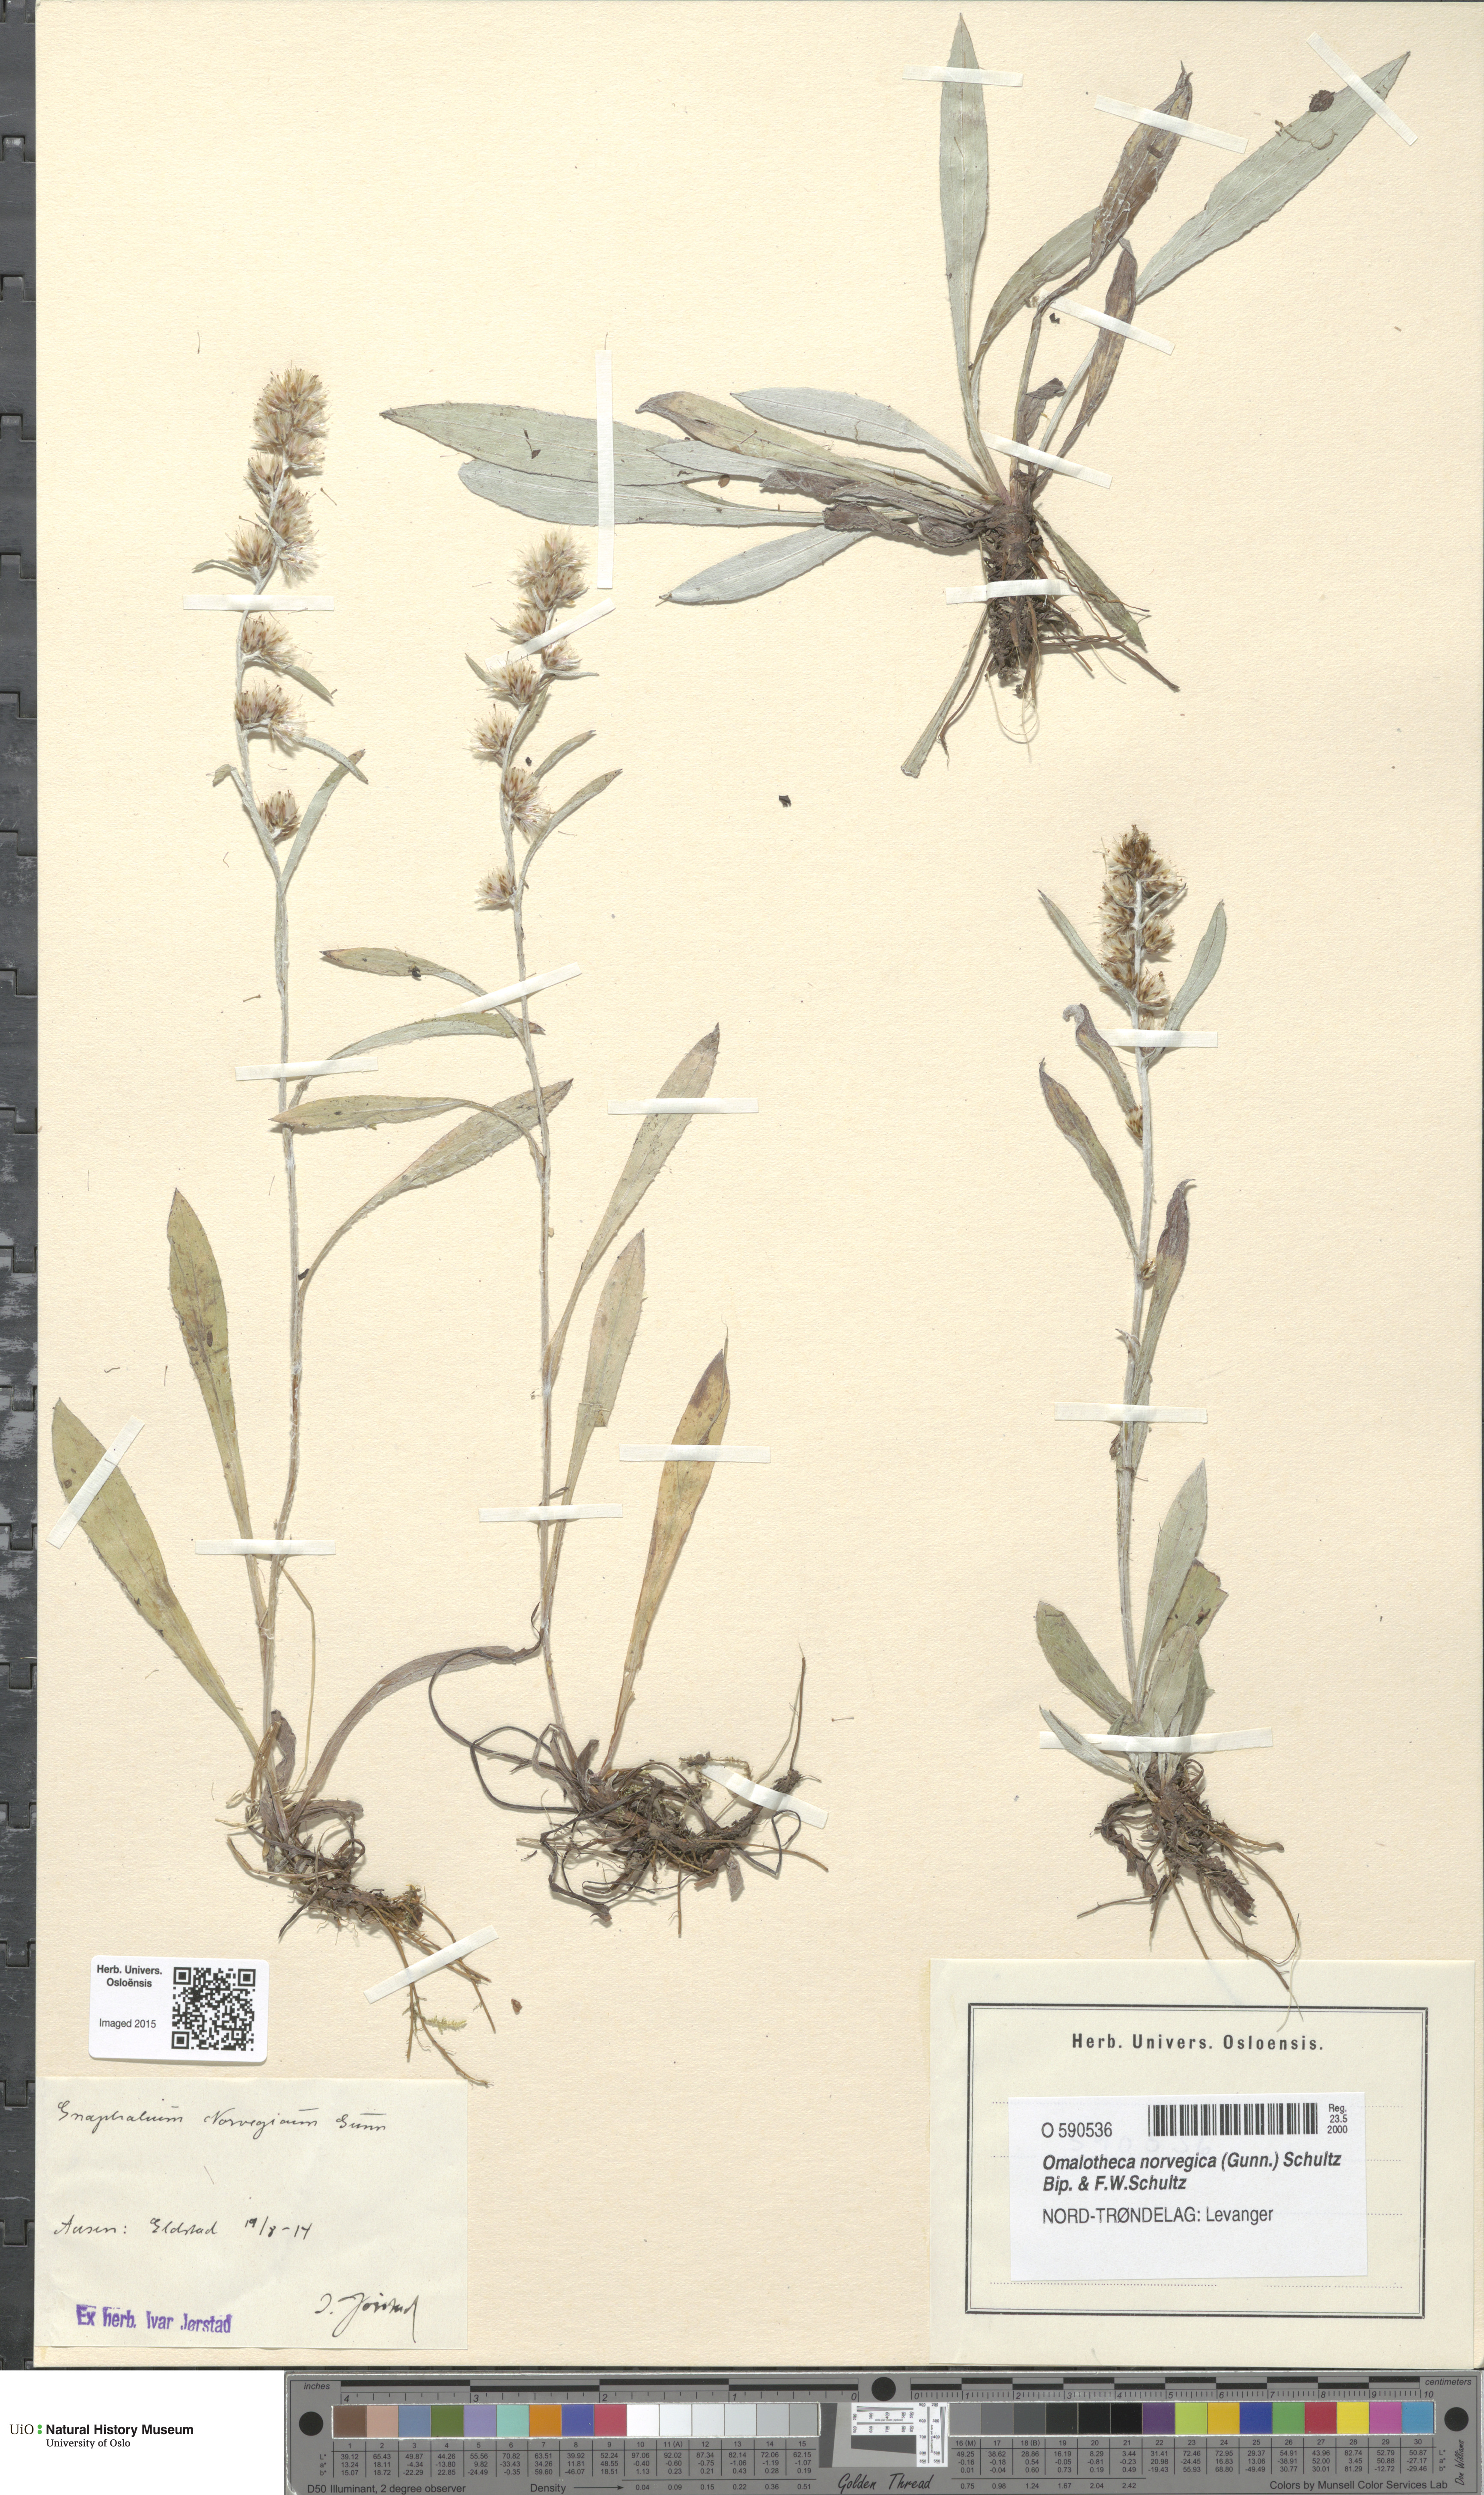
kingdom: Plantae
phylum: Tracheophyta
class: Magnoliopsida
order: Asterales
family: Asteraceae
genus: Omalotheca
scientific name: Omalotheca norvegica
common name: Norwegian arctic-cudweed
